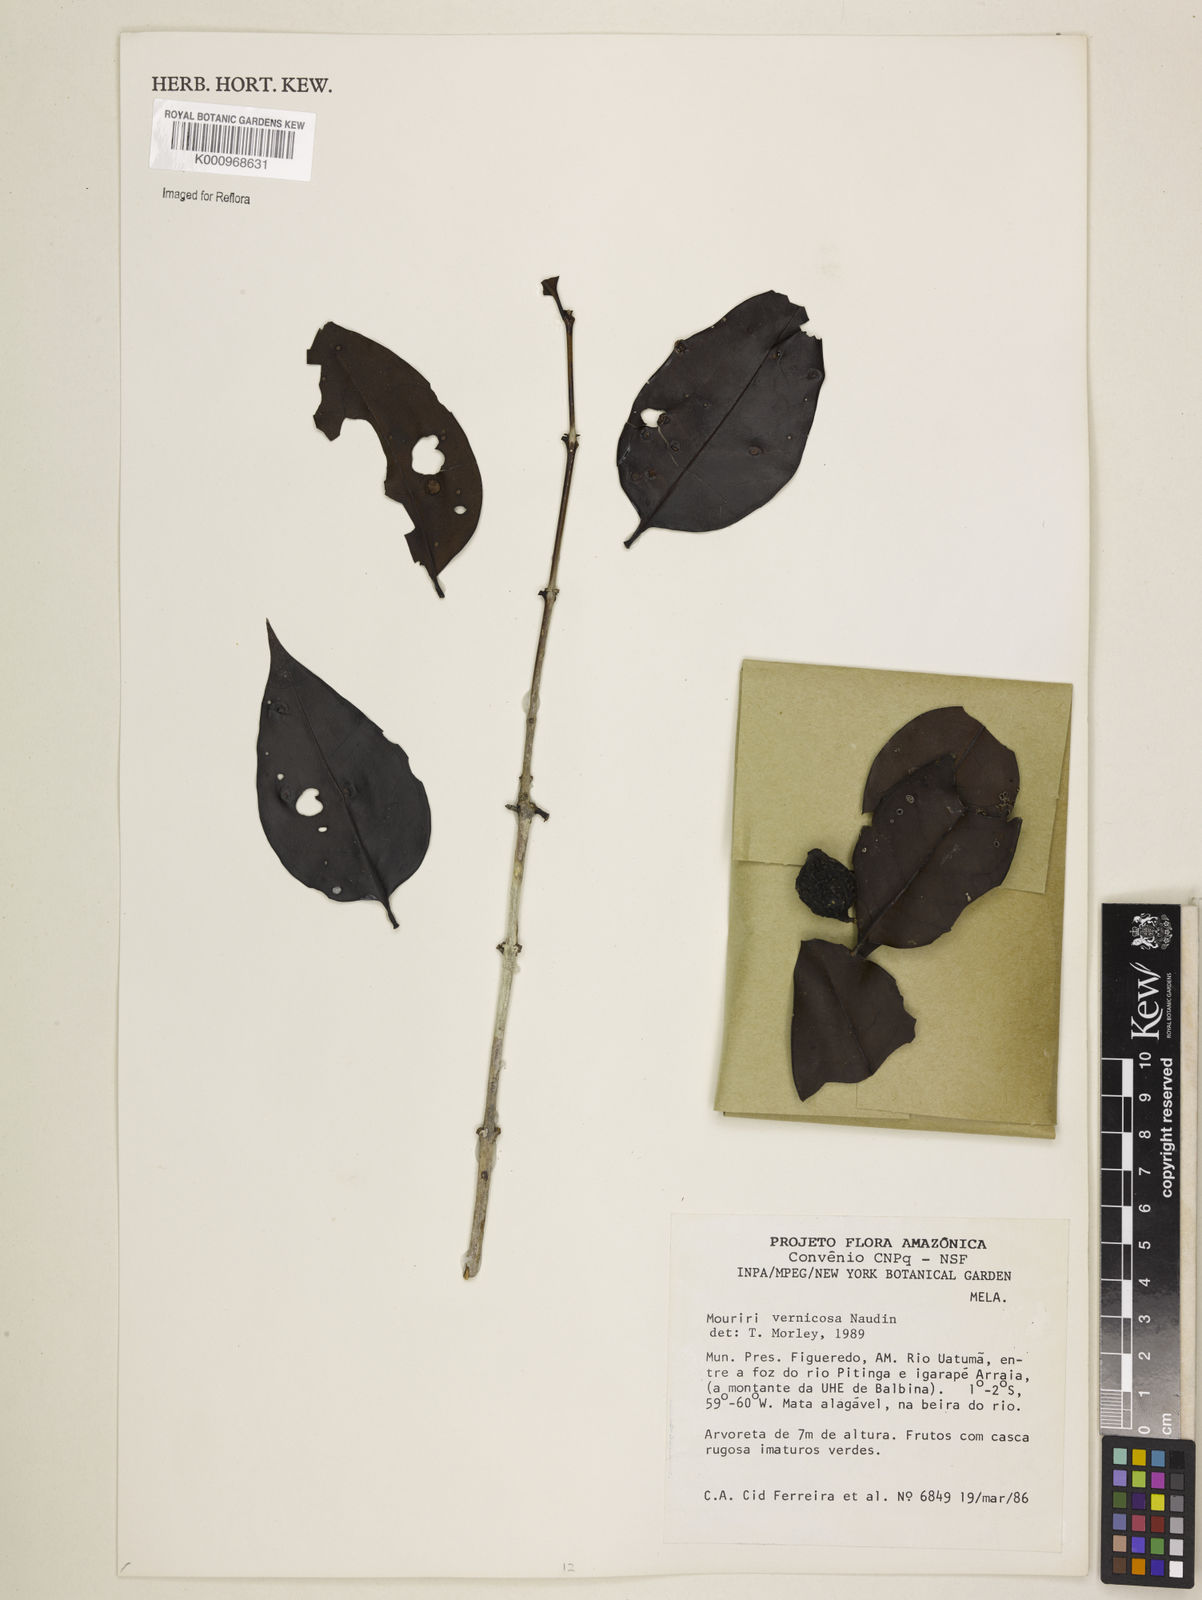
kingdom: Plantae
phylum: Tracheophyta
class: Magnoliopsida
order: Myrtales
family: Melastomataceae
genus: Mouriri
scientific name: Mouriri vernicosa
